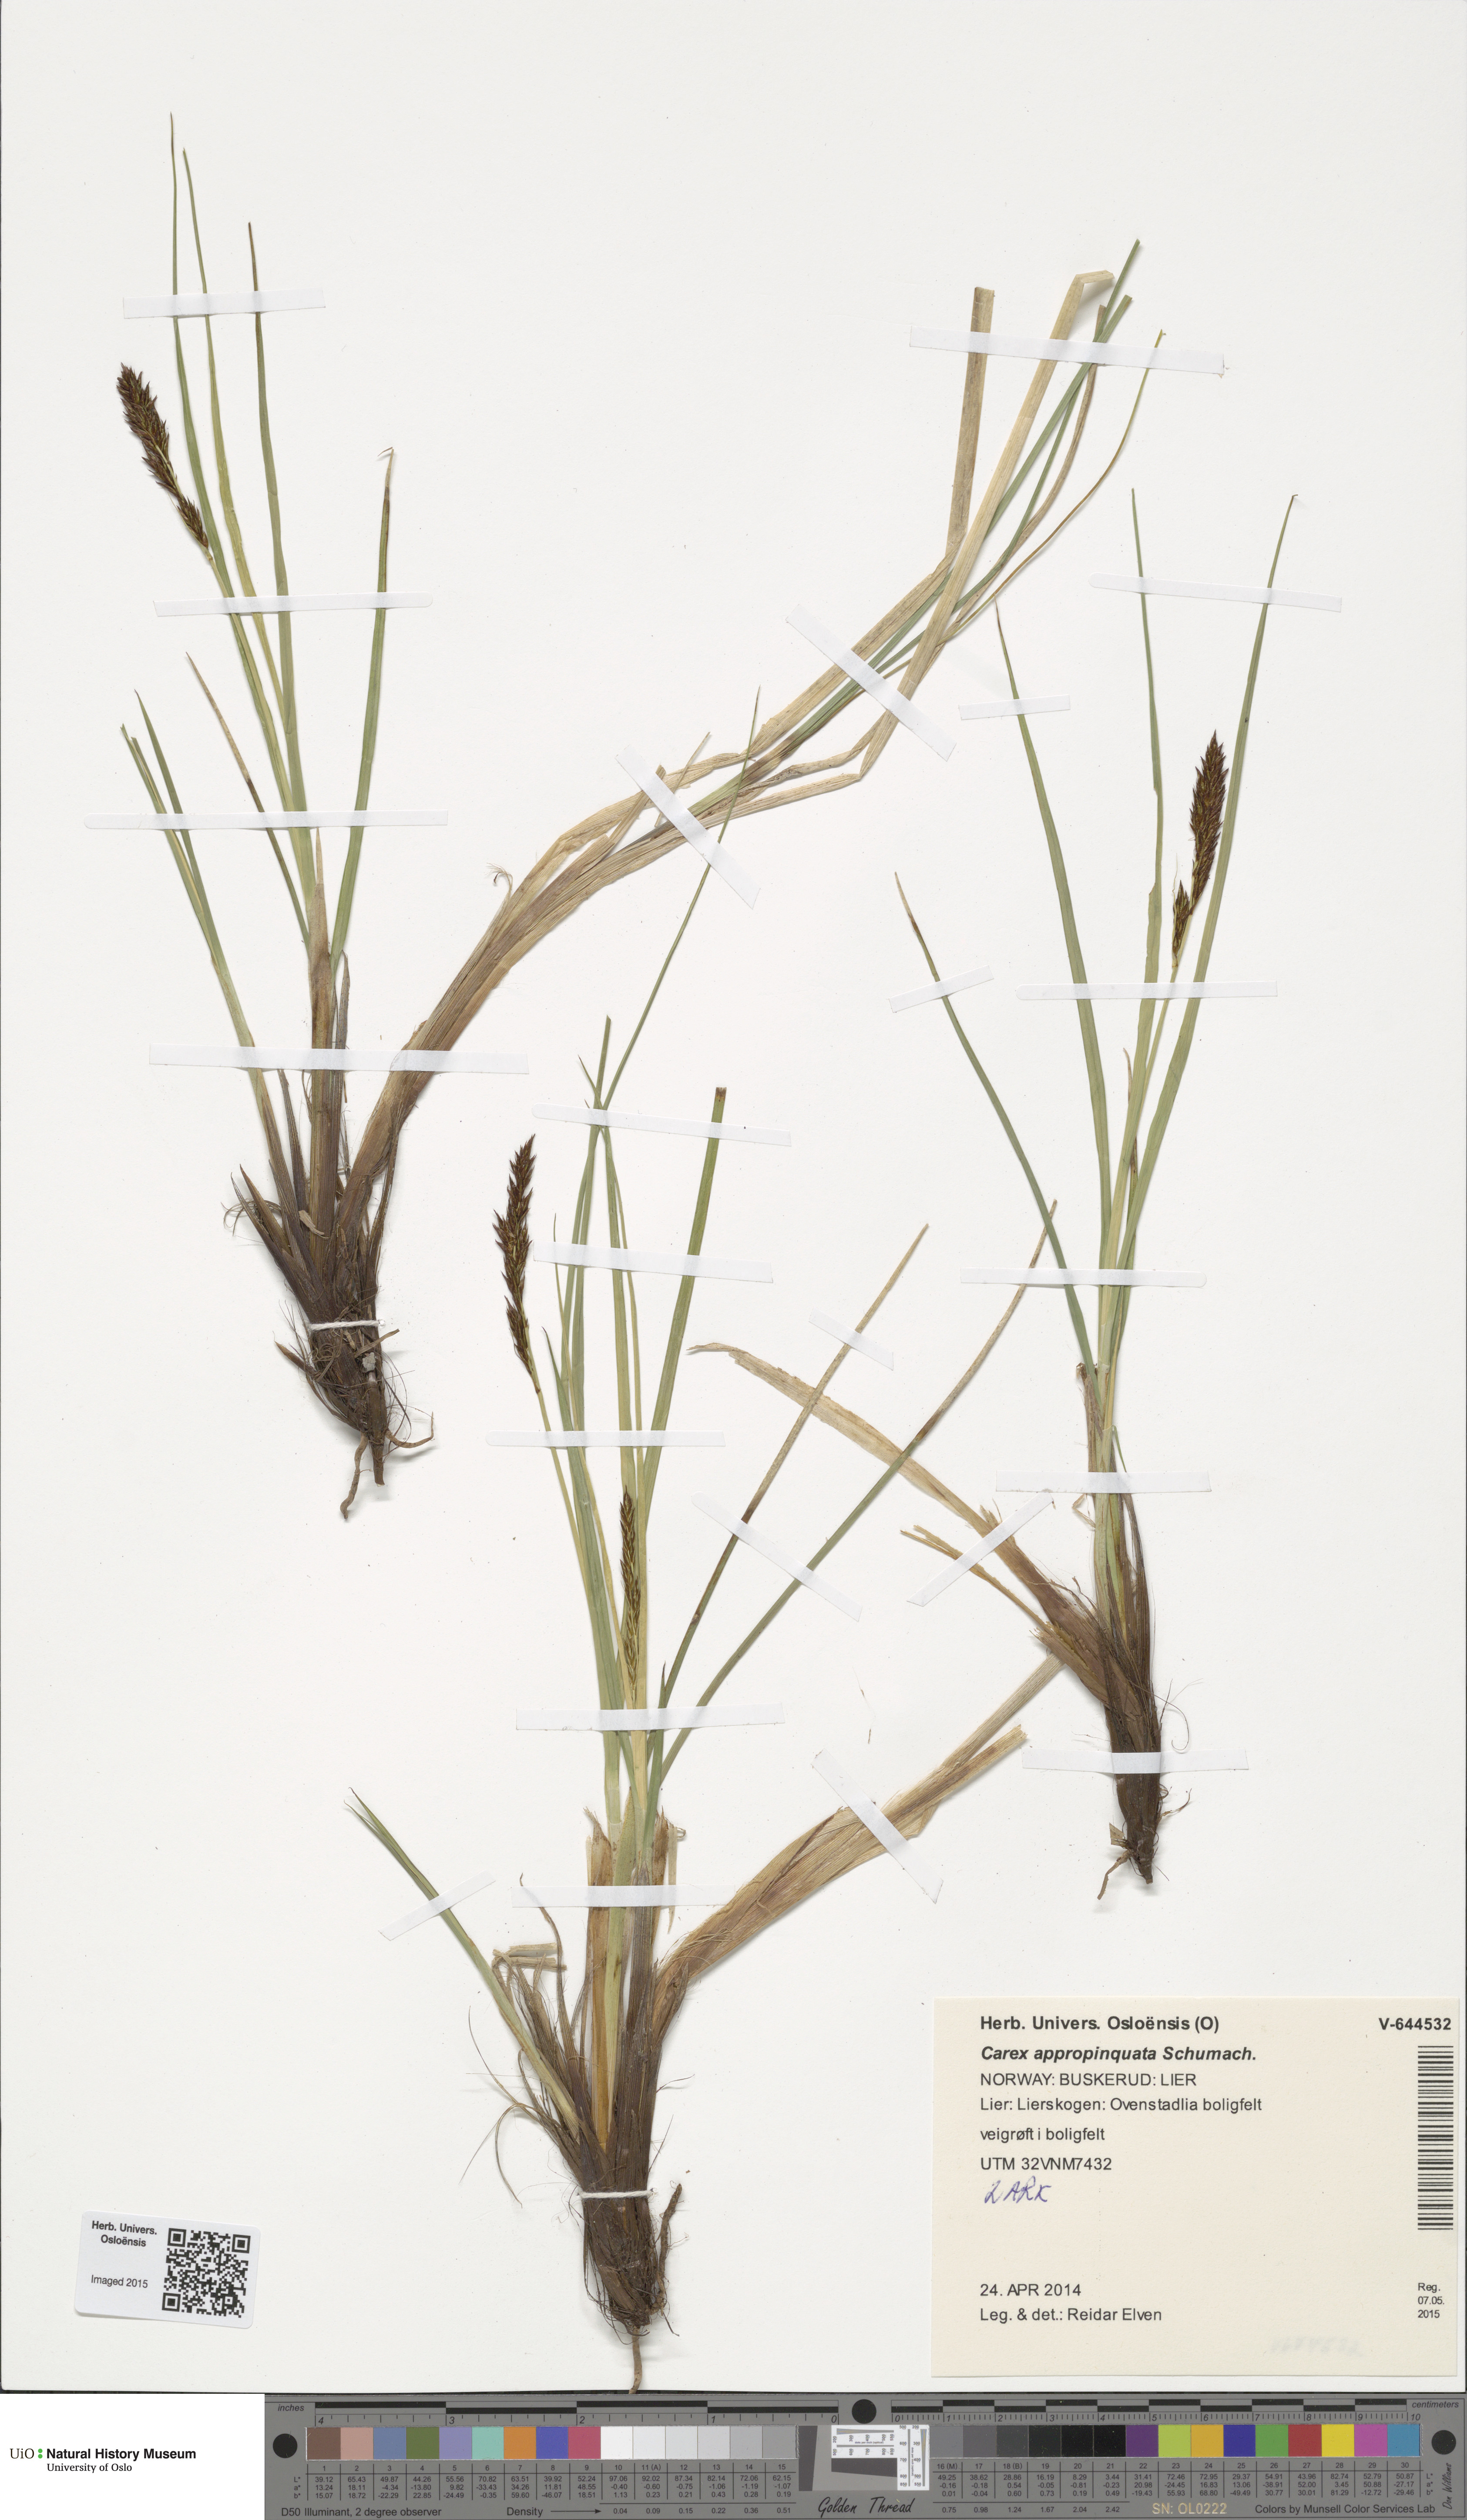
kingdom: Plantae
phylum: Tracheophyta
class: Liliopsida
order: Poales
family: Cyperaceae
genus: Carex
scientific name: Carex appropinquata
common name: Fibrous tussock-sedge
